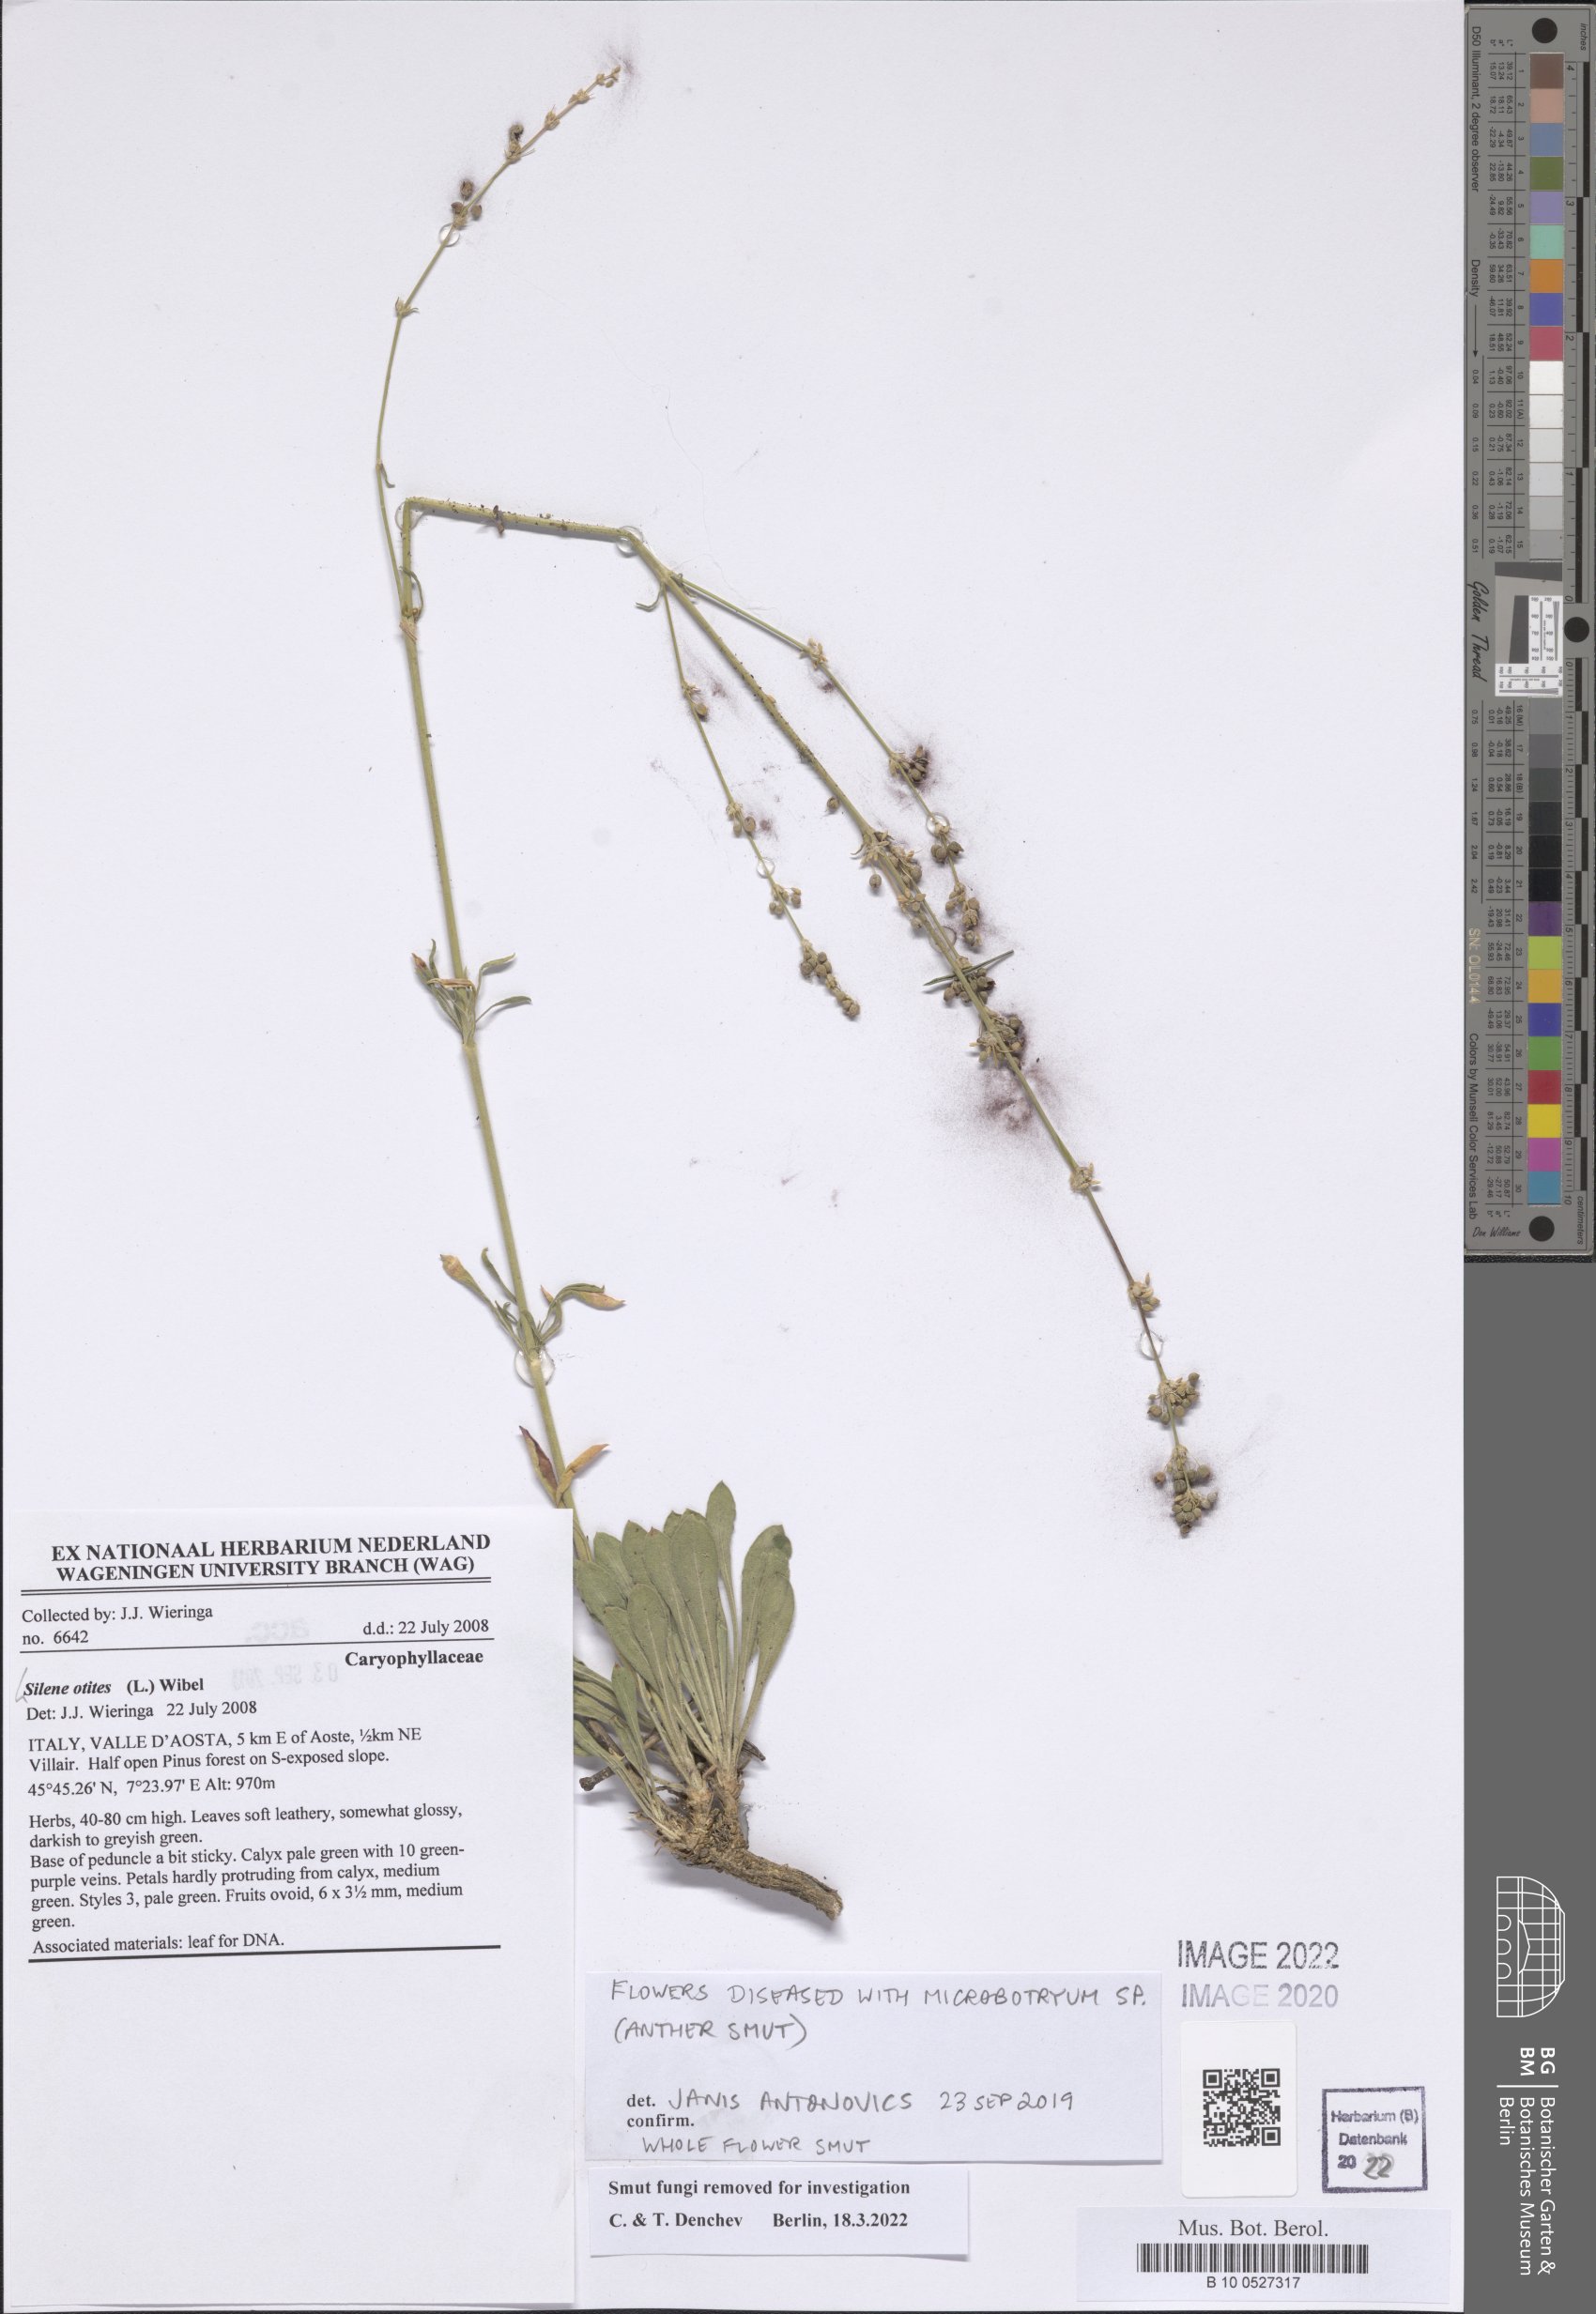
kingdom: Plantae
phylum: Tracheophyta
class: Magnoliopsida
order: Caryophyllales
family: Caryophyllaceae
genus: Silene
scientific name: Silene otites
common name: Spanish catchfly
